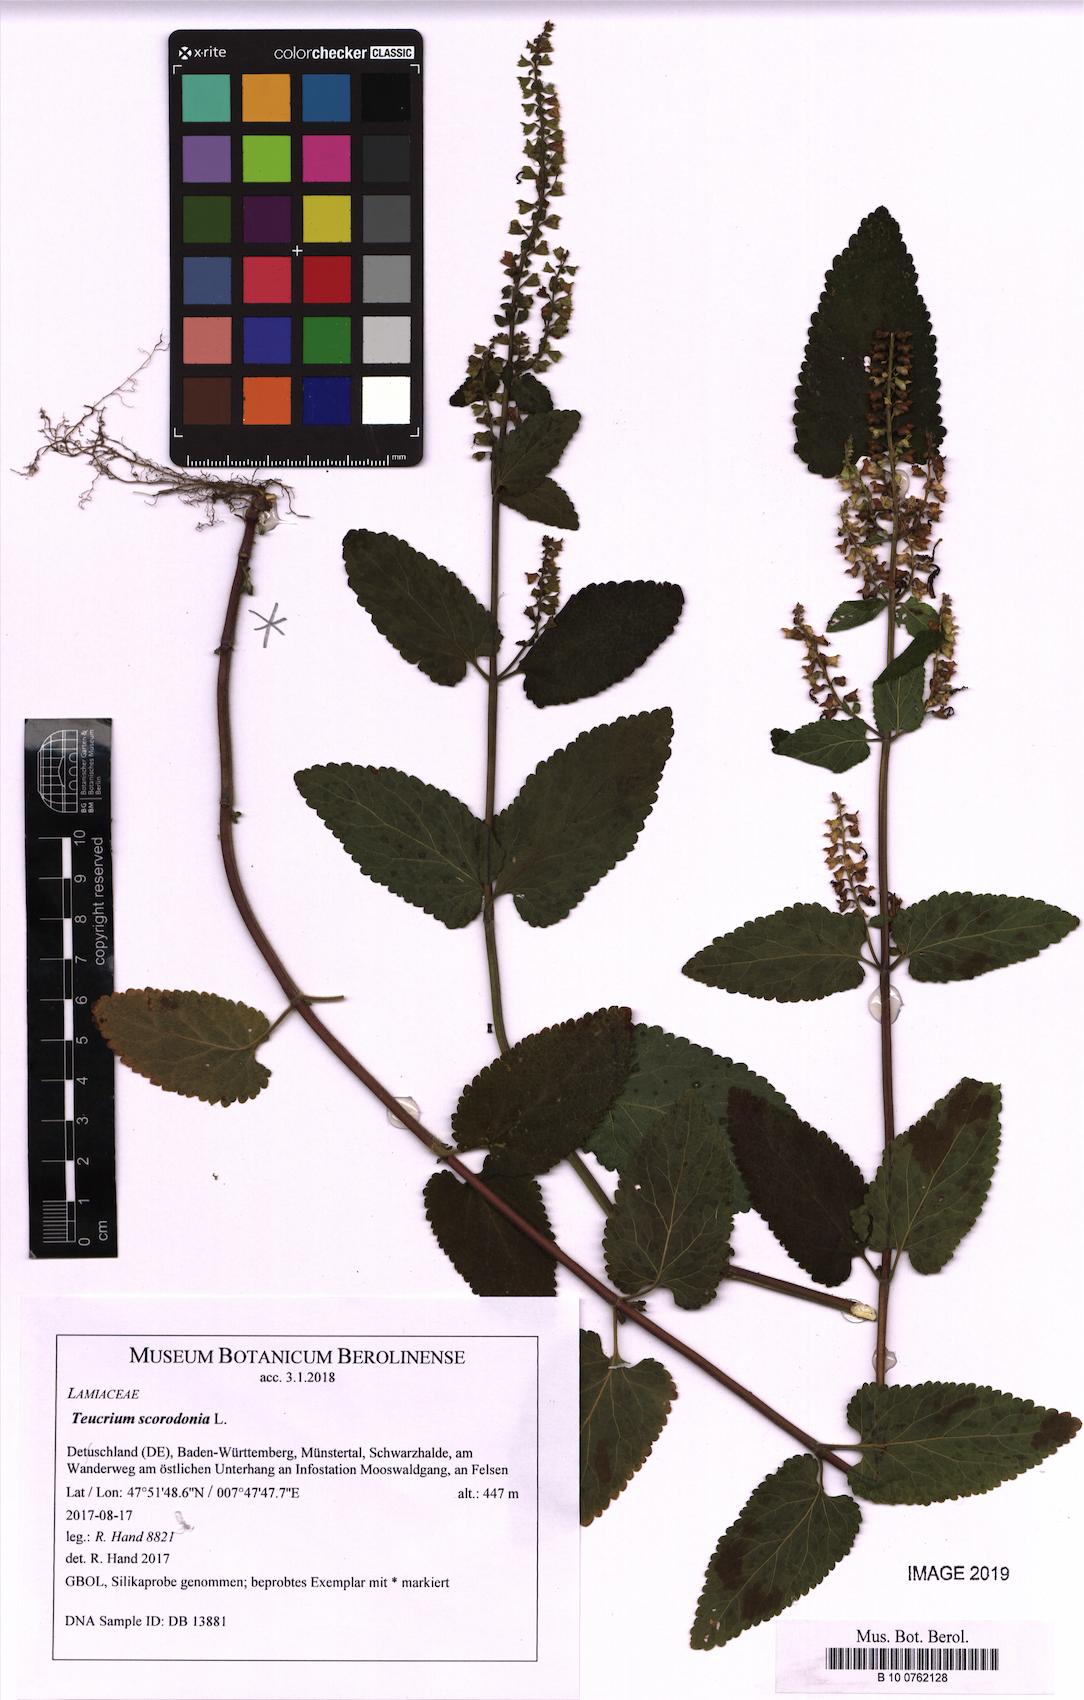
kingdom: Plantae
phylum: Tracheophyta
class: Magnoliopsida
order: Lamiales
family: Lamiaceae
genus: Teucrium
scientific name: Teucrium scorodonia
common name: Woodland germander
